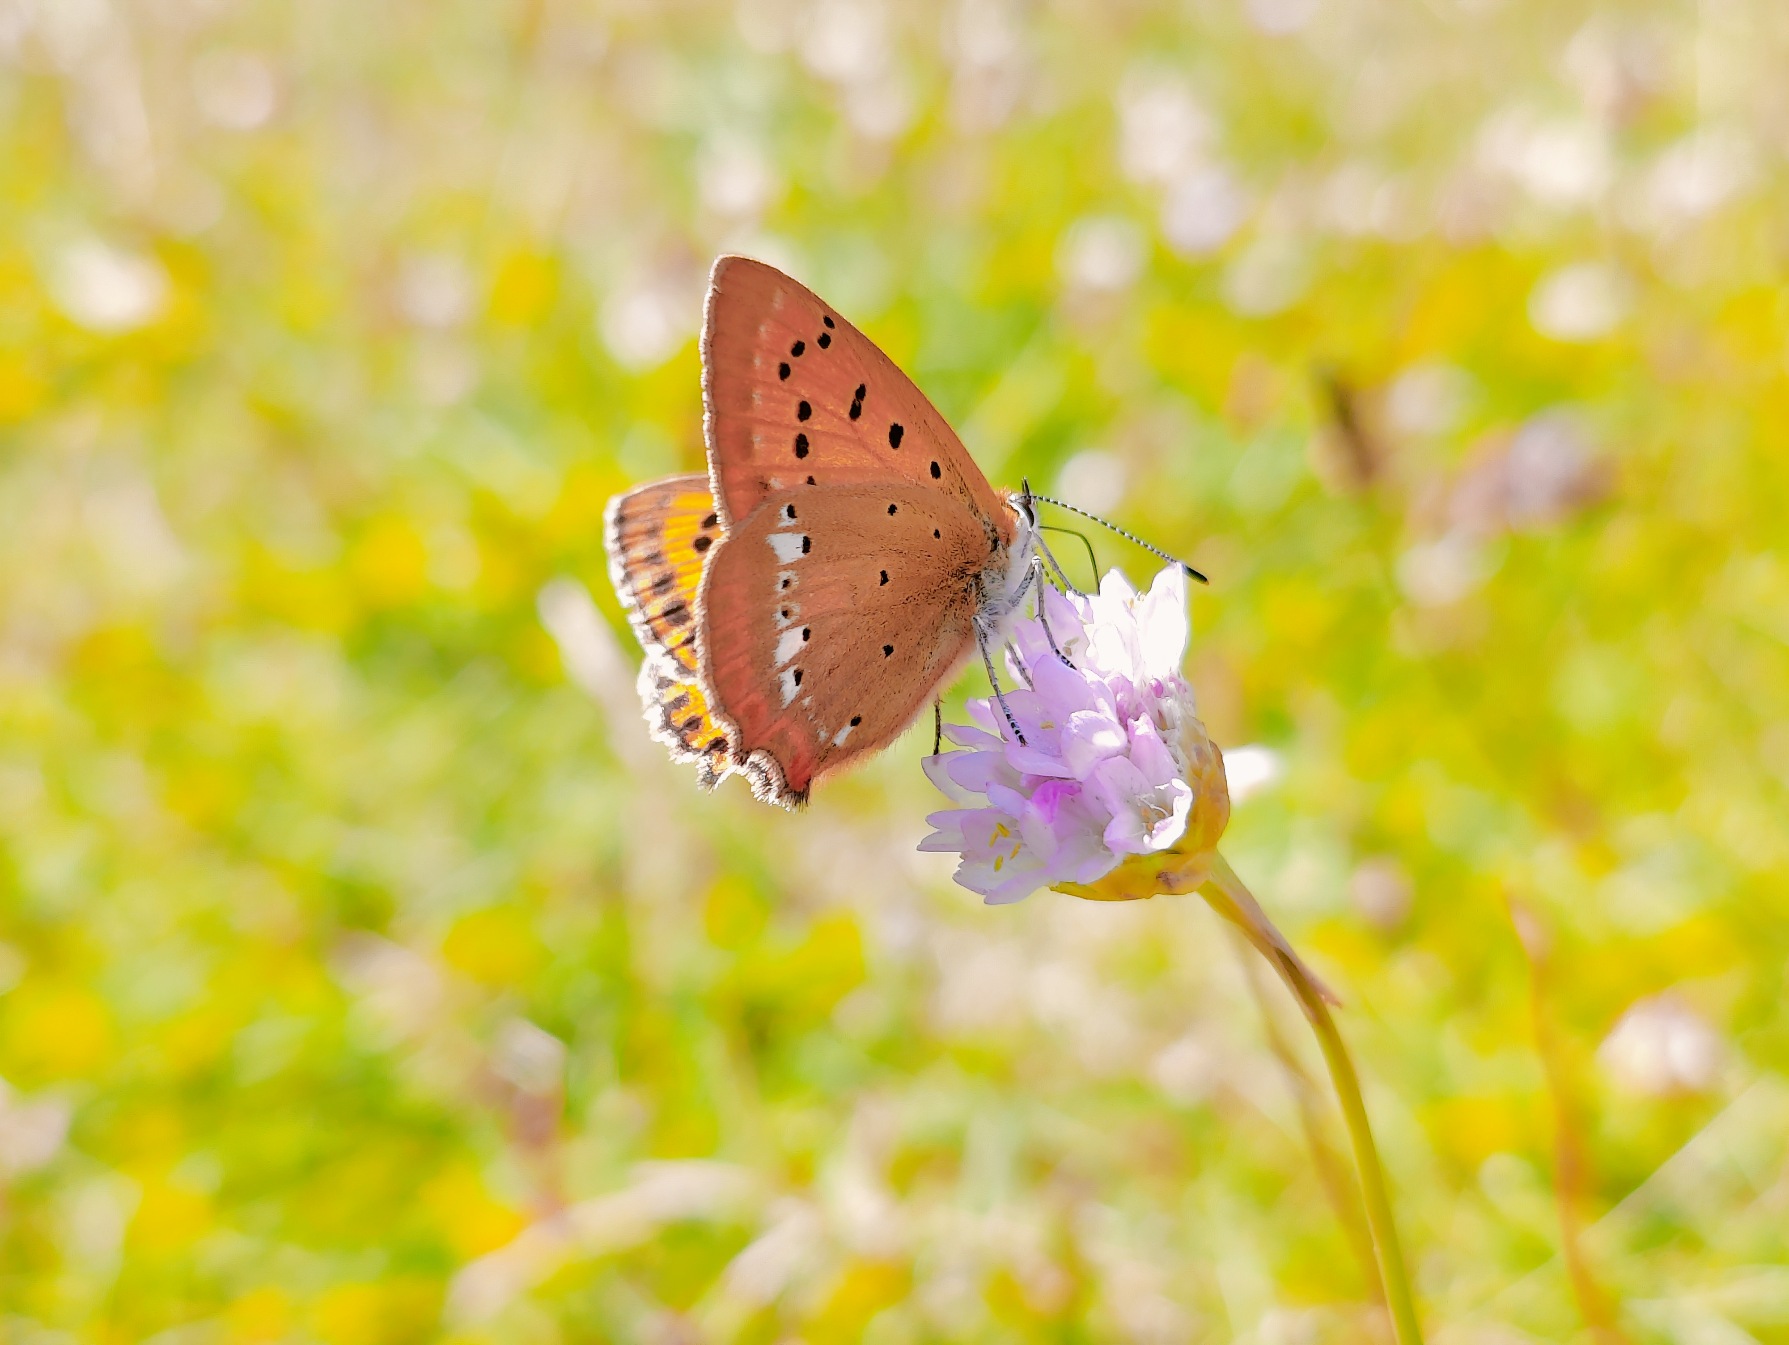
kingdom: Animalia
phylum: Arthropoda
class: Insecta
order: Lepidoptera
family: Lycaenidae
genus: Lycaena
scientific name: Lycaena virgaureae
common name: Dukatsommerfugl
